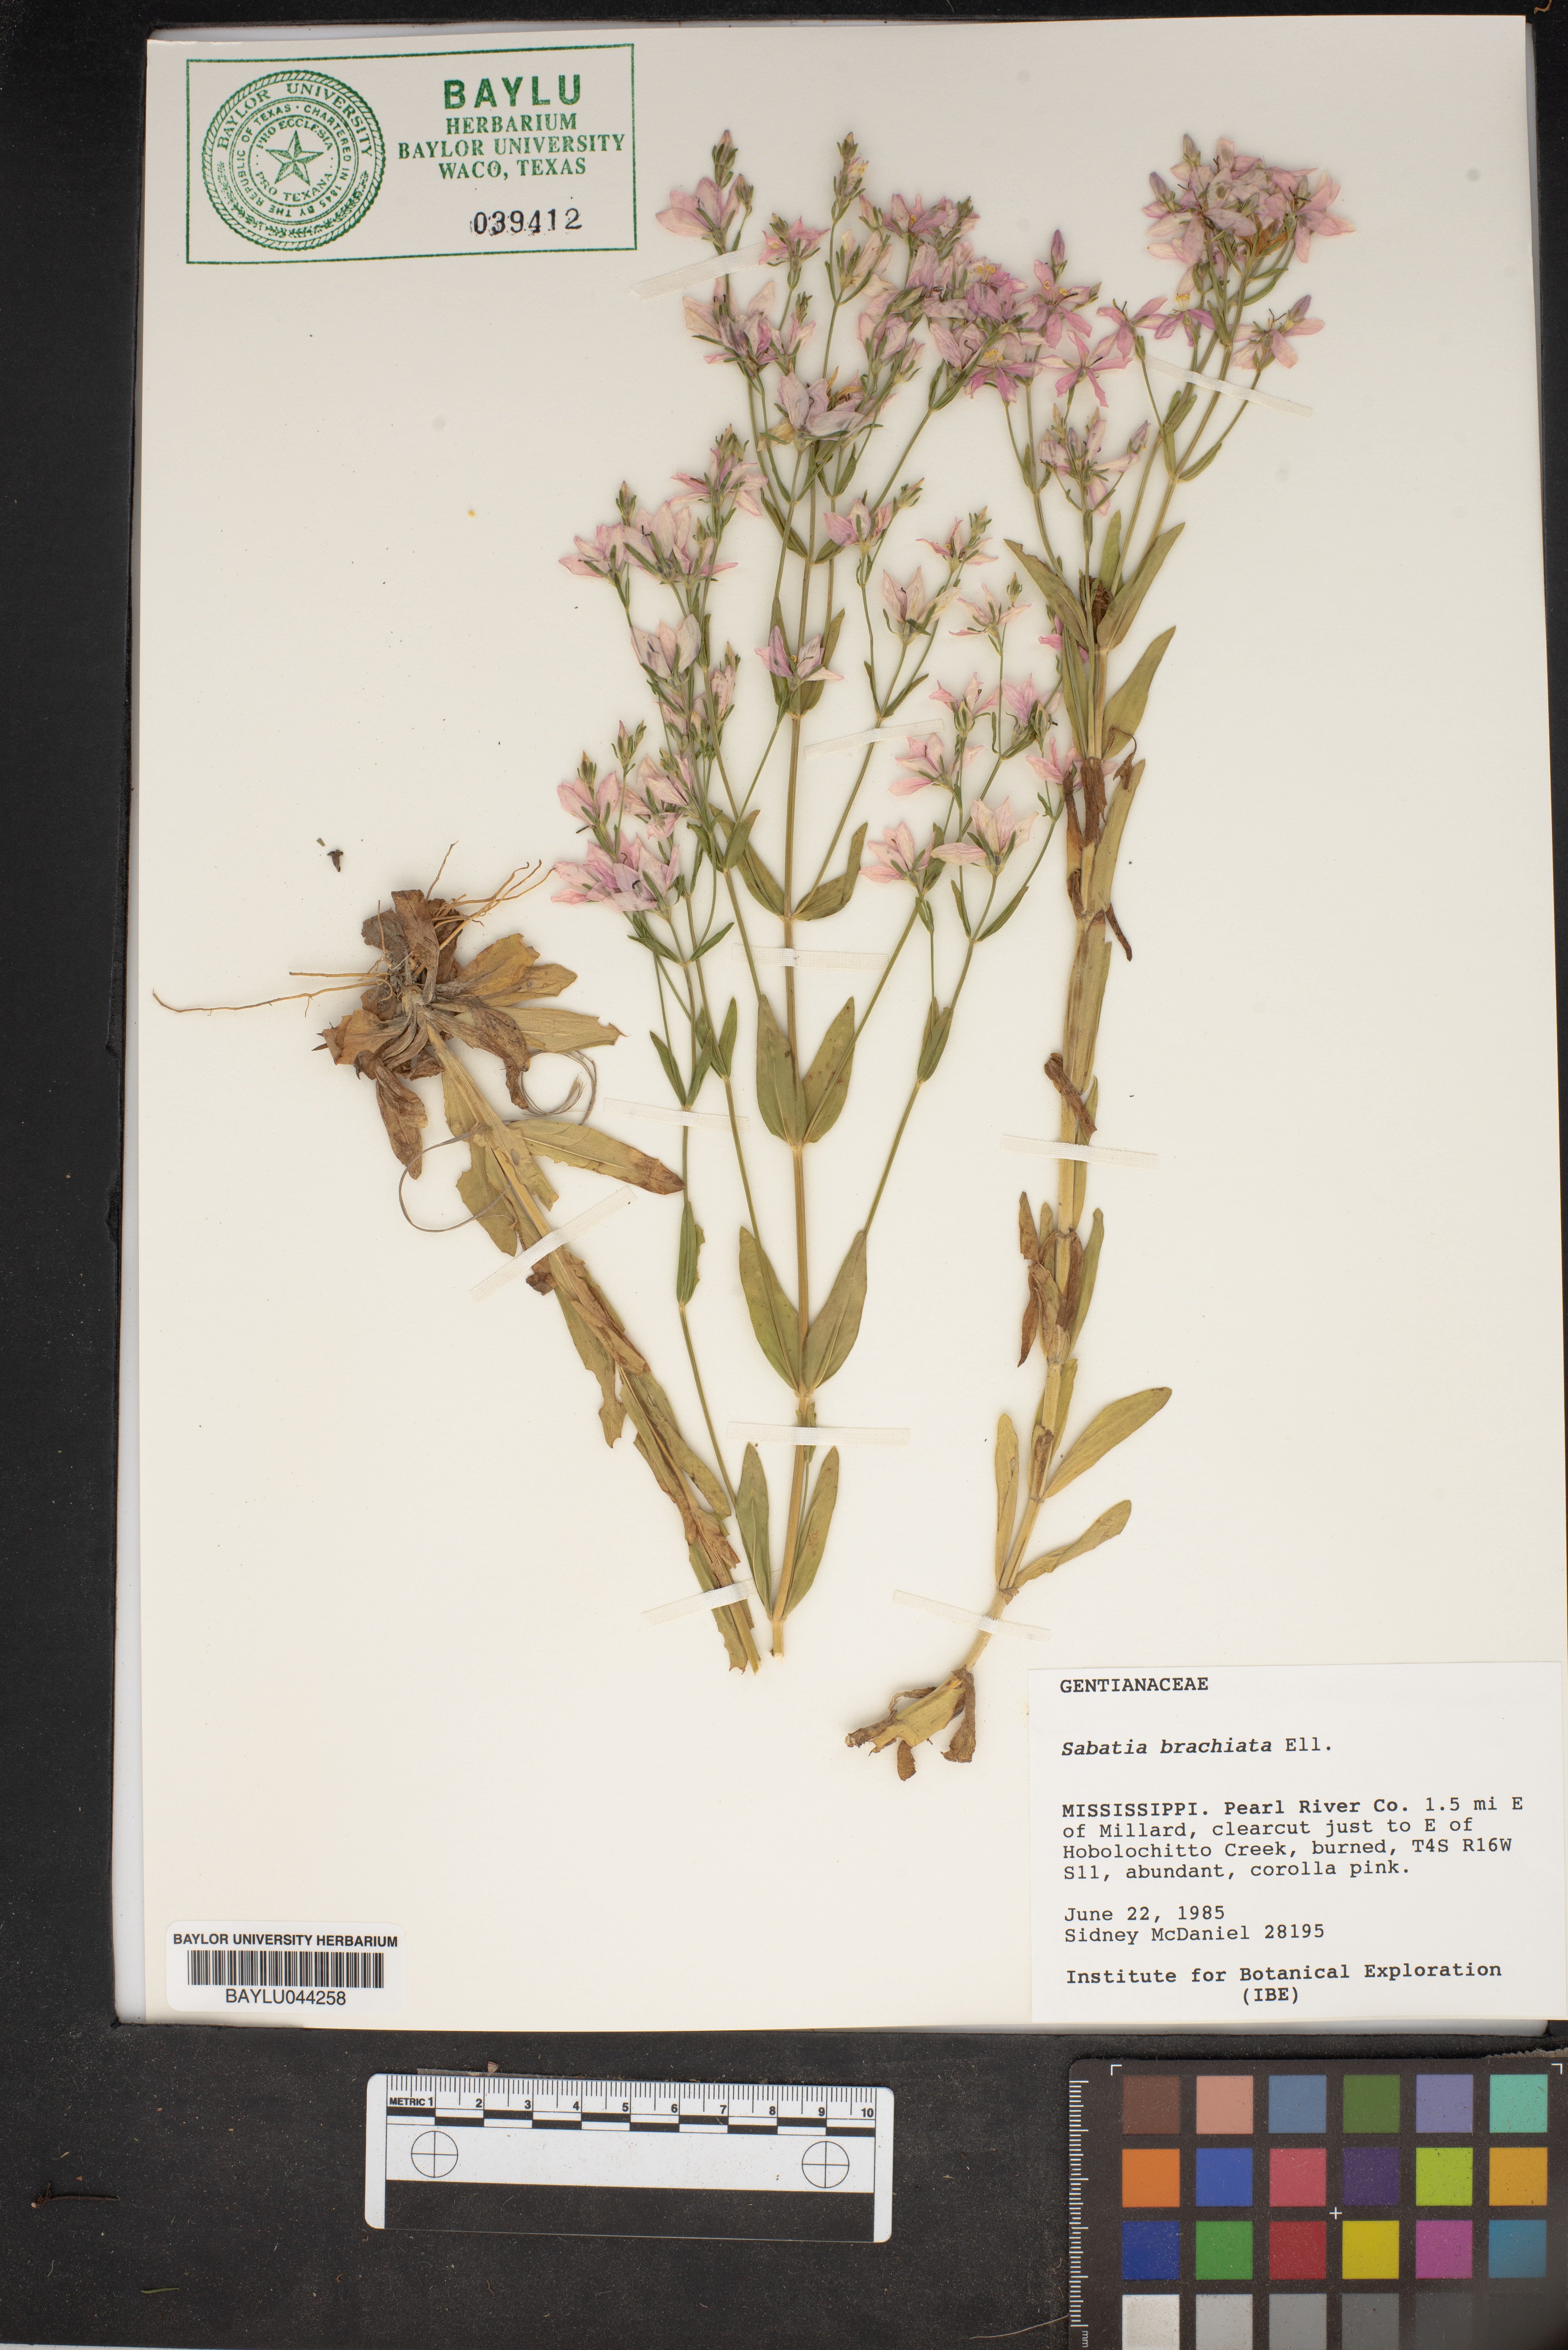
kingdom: Plantae
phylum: Tracheophyta
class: Magnoliopsida
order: Gentianales
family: Gentianaceae
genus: Sabatia
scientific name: Sabatia brachiata
